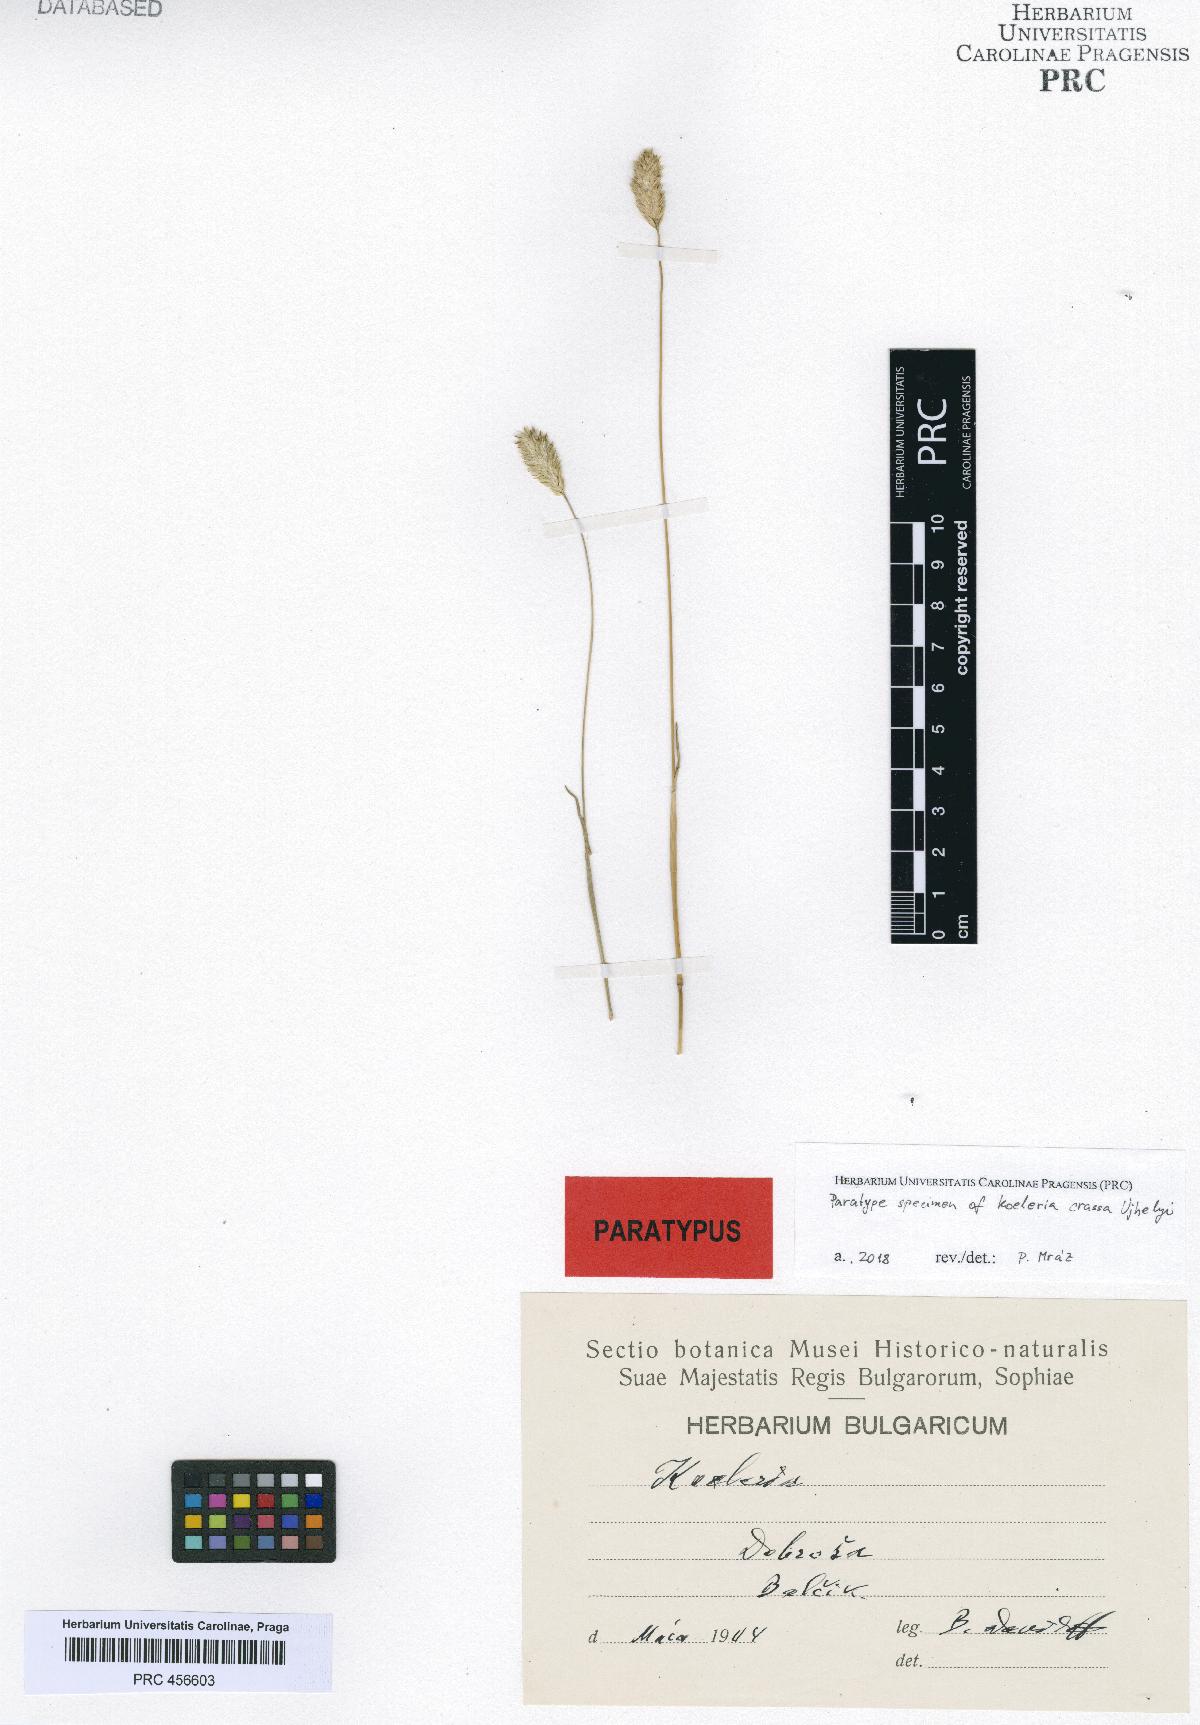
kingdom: Plantae
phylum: Tracheophyta
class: Liliopsida
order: Poales
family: Poaceae
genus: Koeleria
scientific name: Koeleria splendens
